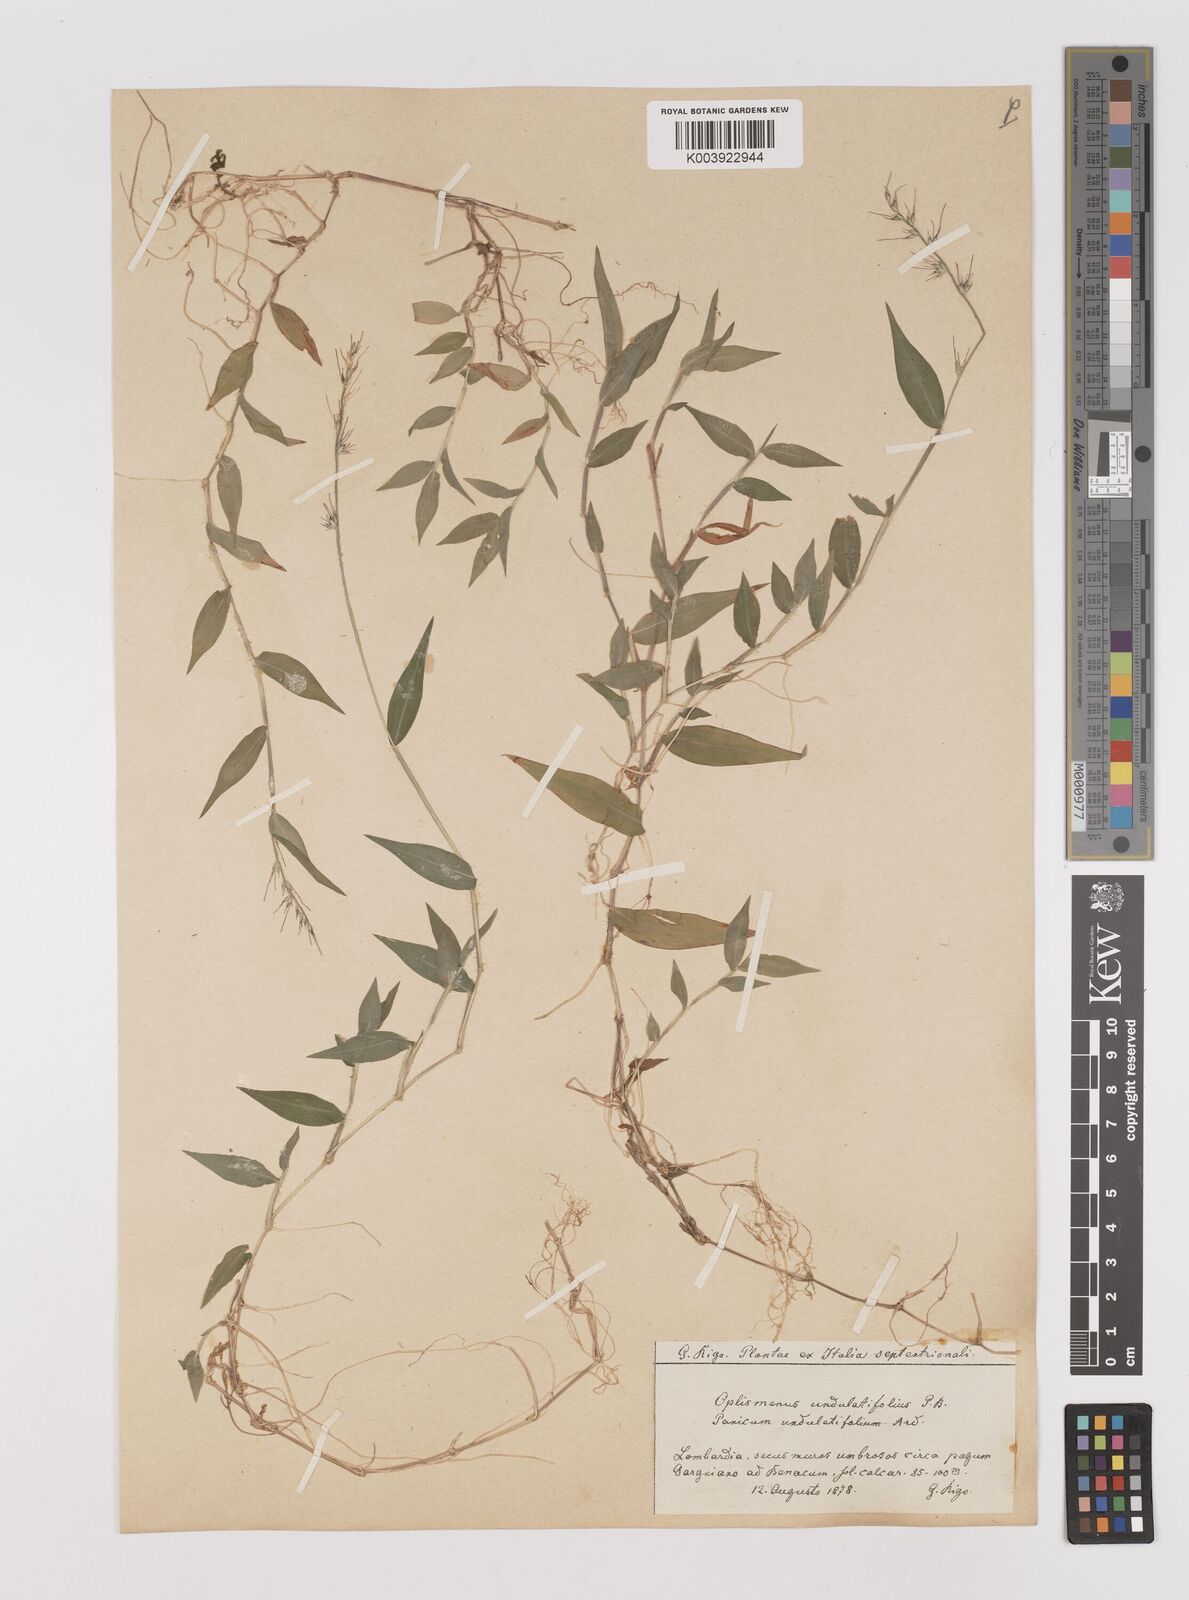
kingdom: Plantae
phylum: Tracheophyta
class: Liliopsida
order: Poales
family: Poaceae
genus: Oplismenus
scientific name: Oplismenus undulatifolius
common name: Wavyleaf basketgrass
